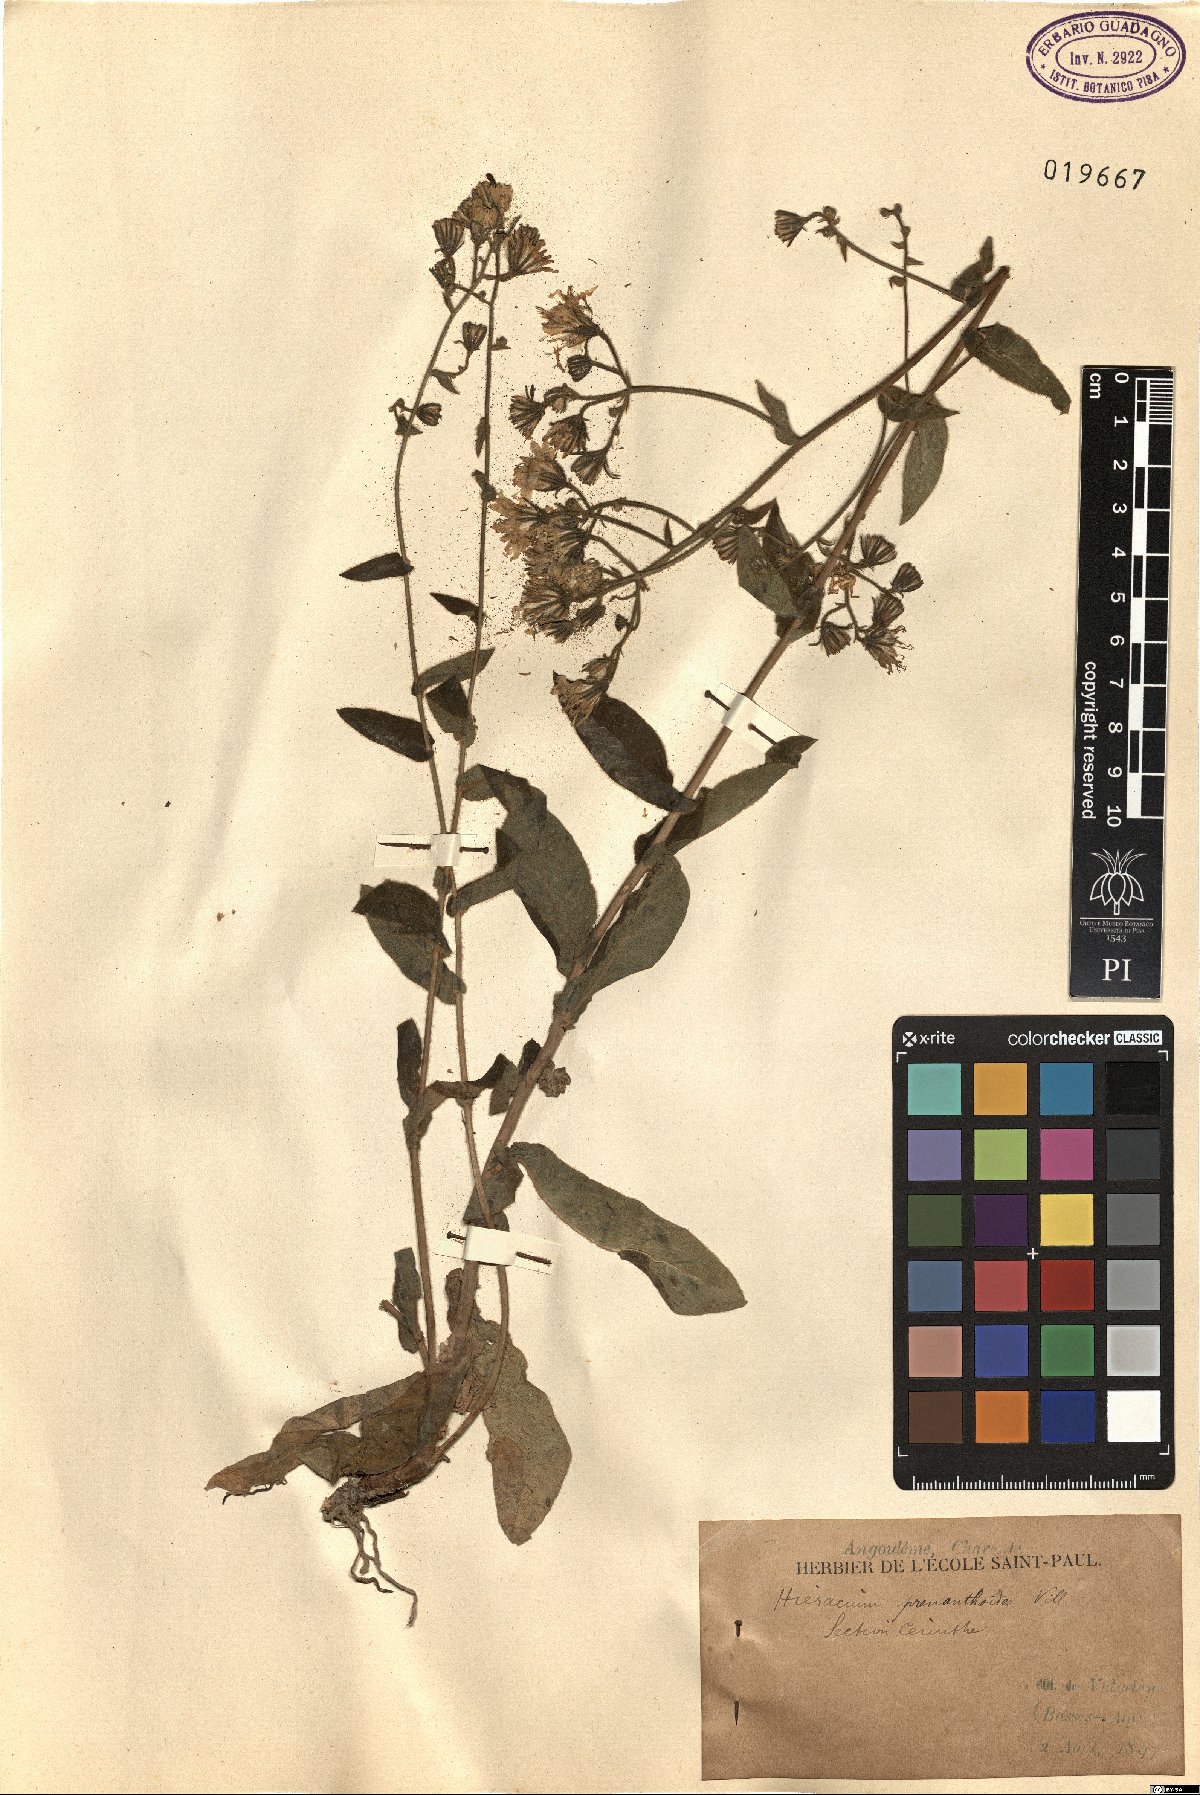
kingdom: Plantae
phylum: Tracheophyta
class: Magnoliopsida
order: Asterales
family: Asteraceae
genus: Hieracium
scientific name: Hieracium prenanthoides
